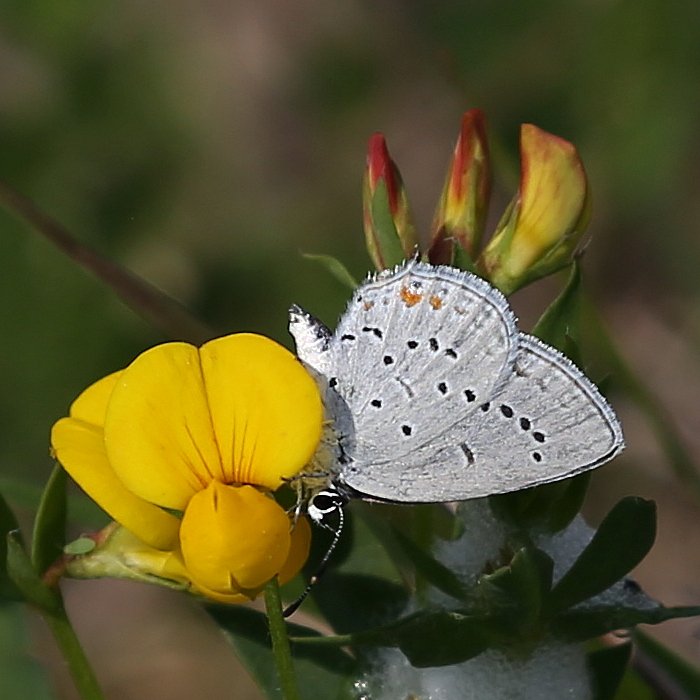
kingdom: Animalia
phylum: Arthropoda
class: Insecta
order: Lepidoptera
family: Lycaenidae
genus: Elkalyce
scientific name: Elkalyce comyntas
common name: Eastern Tailed-Blue
